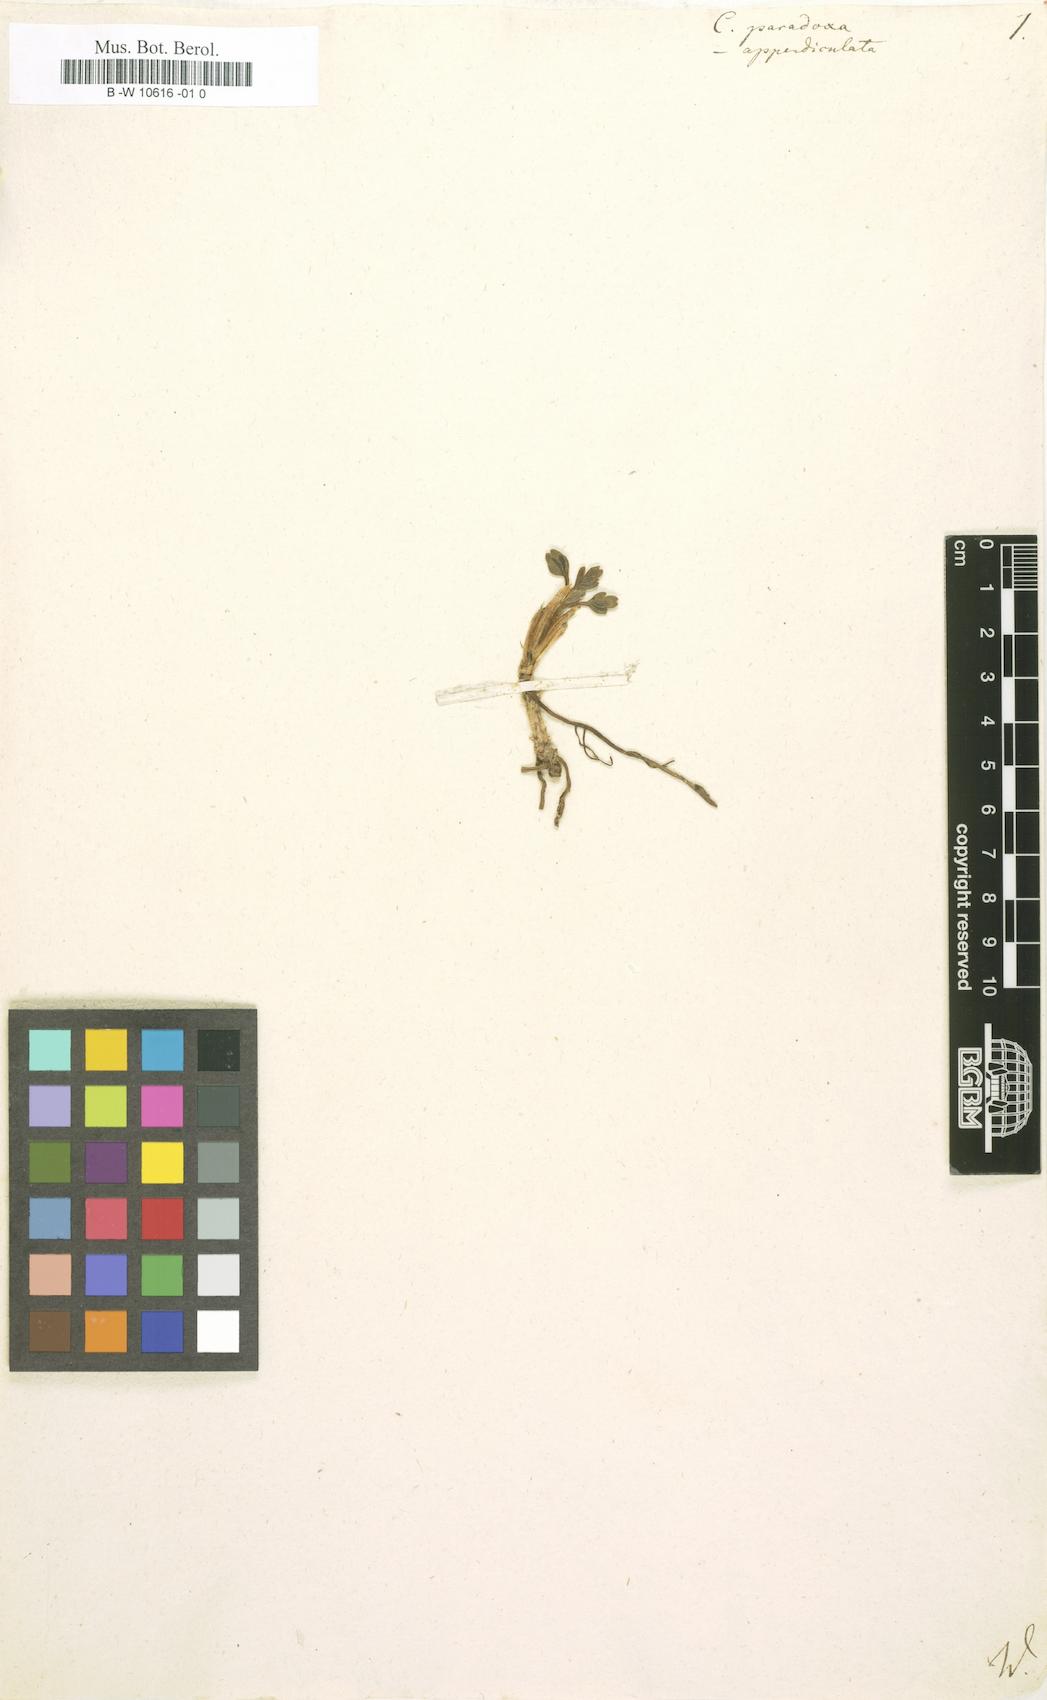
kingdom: Plantae
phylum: Tracheophyta
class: Magnoliopsida
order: Ranunculales
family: Ranunculaceae
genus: Caltha
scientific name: Caltha appendiculata
